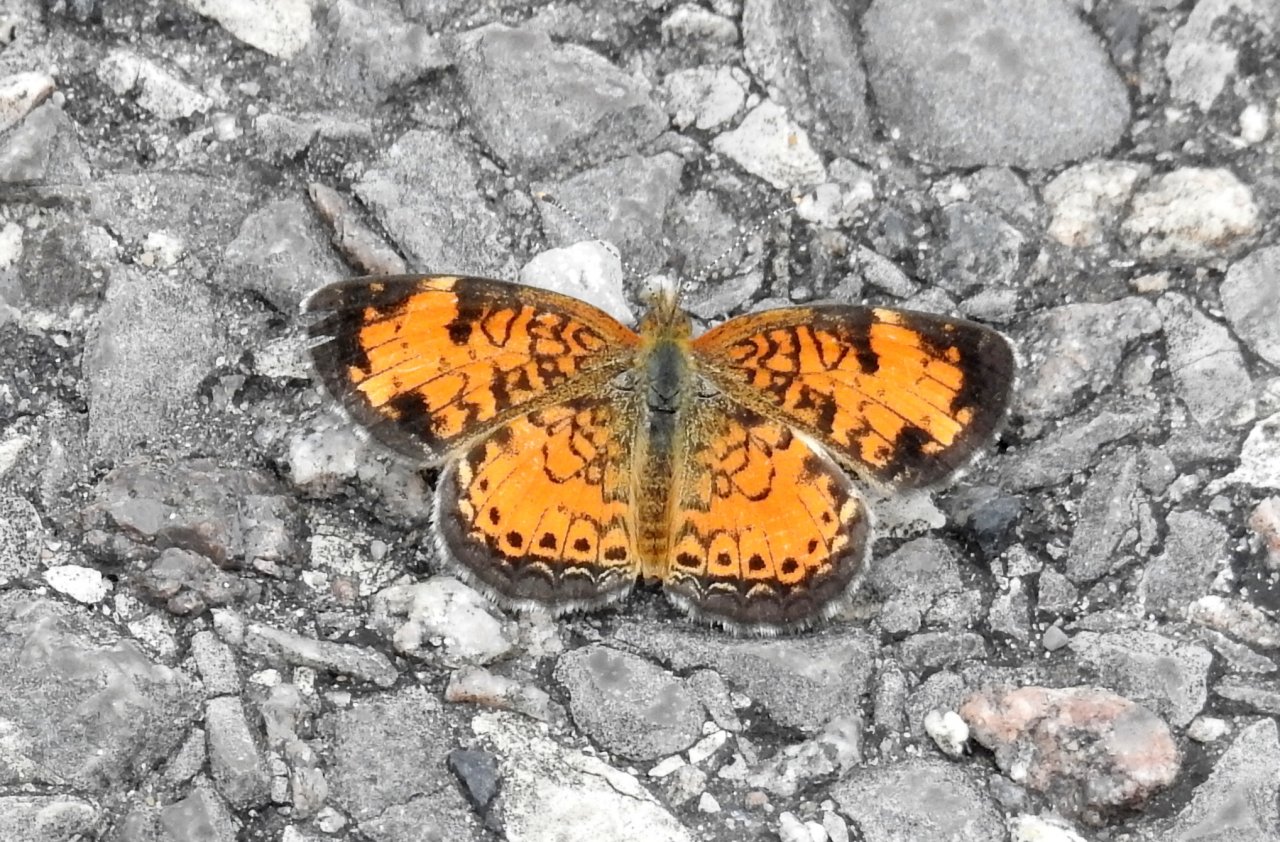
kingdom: Animalia
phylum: Arthropoda
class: Insecta
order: Lepidoptera
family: Nymphalidae
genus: Phyciodes
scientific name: Phyciodes
